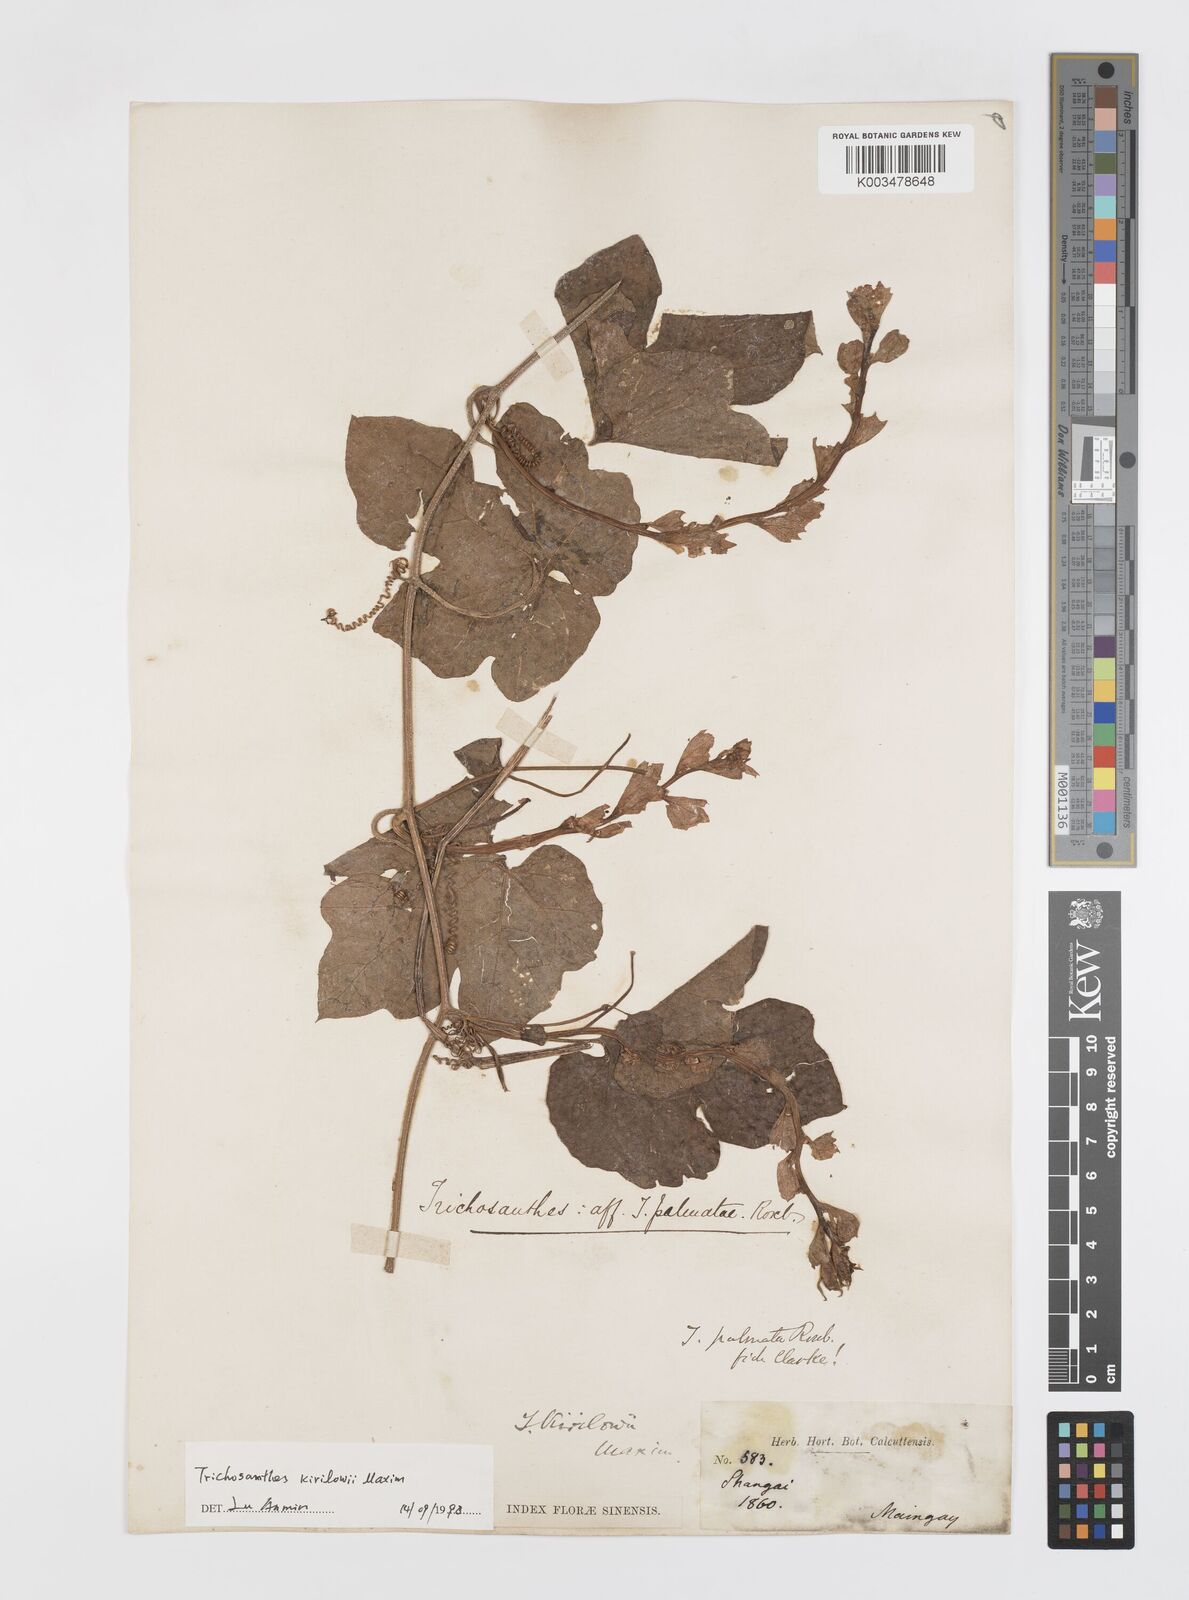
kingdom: Plantae
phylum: Tracheophyta
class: Magnoliopsida
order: Cucurbitales
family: Cucurbitaceae
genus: Trichosanthes
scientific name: Trichosanthes kirilowii
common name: Chinese-cucumber
